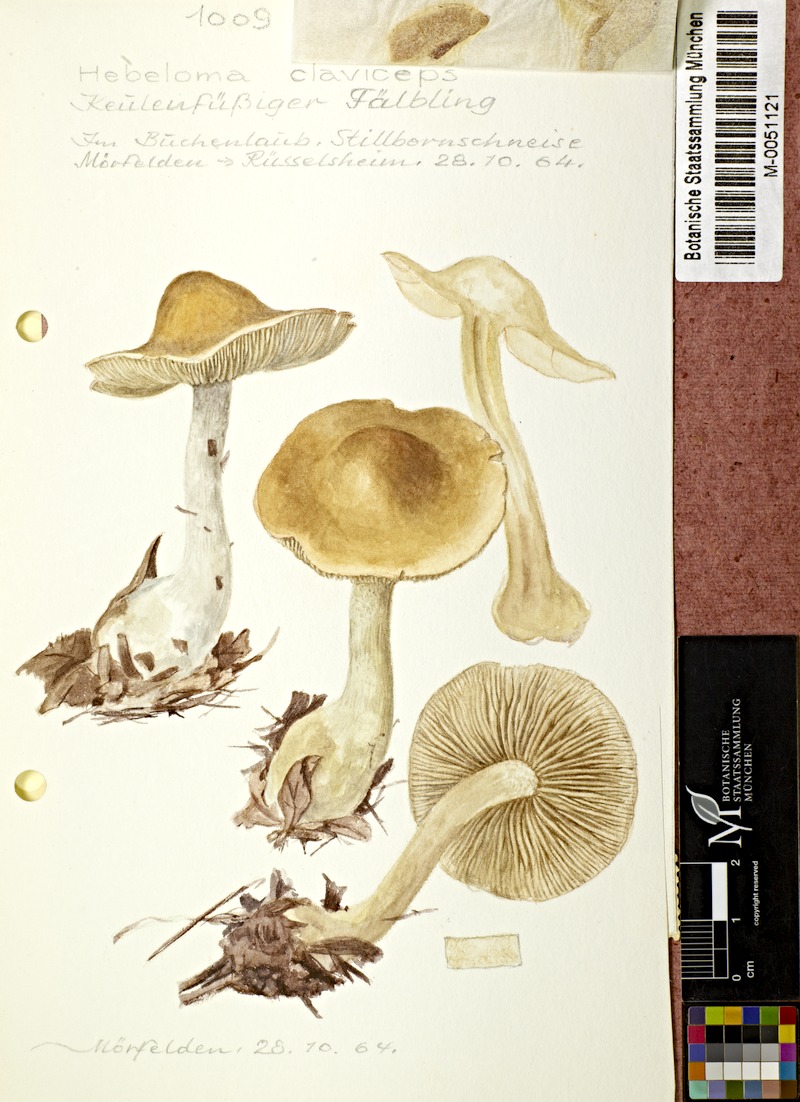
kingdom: Fungi
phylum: Basidiomycota
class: Agaricomycetes
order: Agaricales
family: Hymenogastraceae
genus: Hebeloma
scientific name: Hebeloma claviceps
